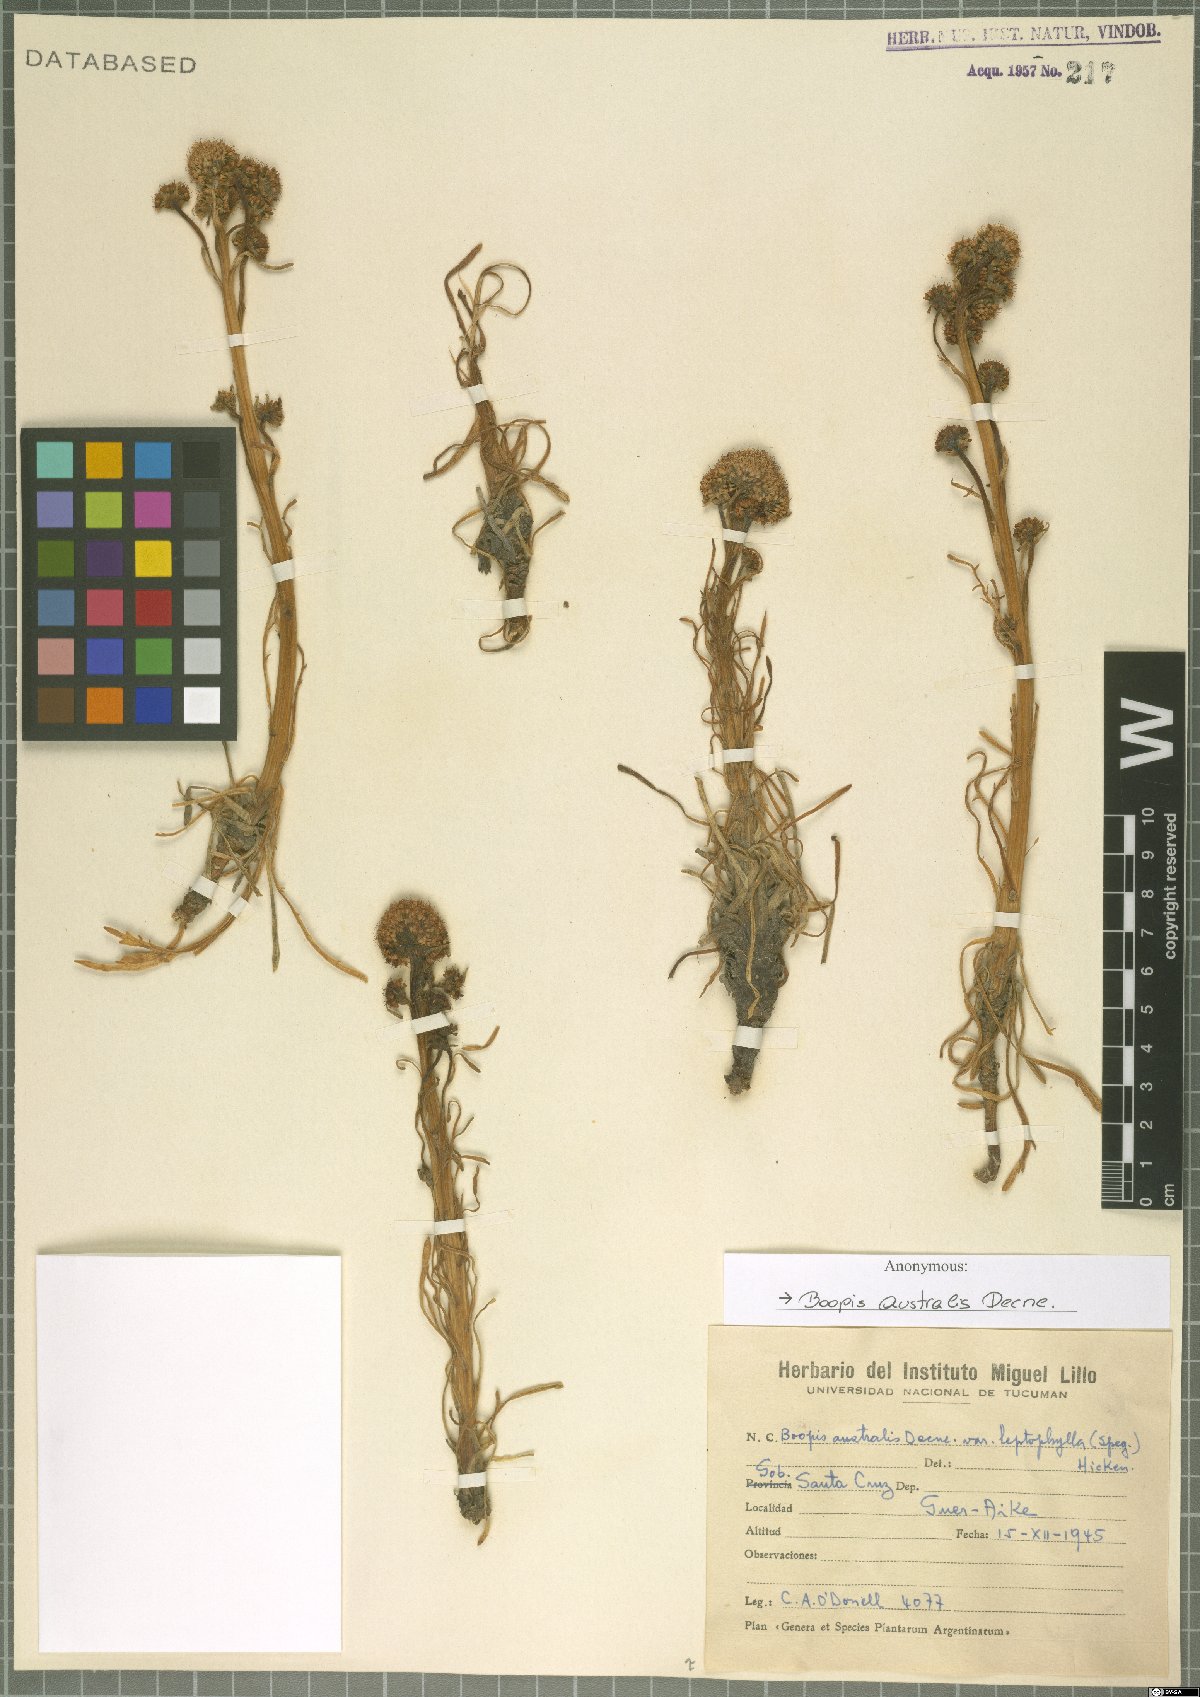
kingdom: Plantae
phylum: Tracheophyta
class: Magnoliopsida
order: Asterales
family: Calyceraceae
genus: Gamocarpha
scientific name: Gamocarpha australis
